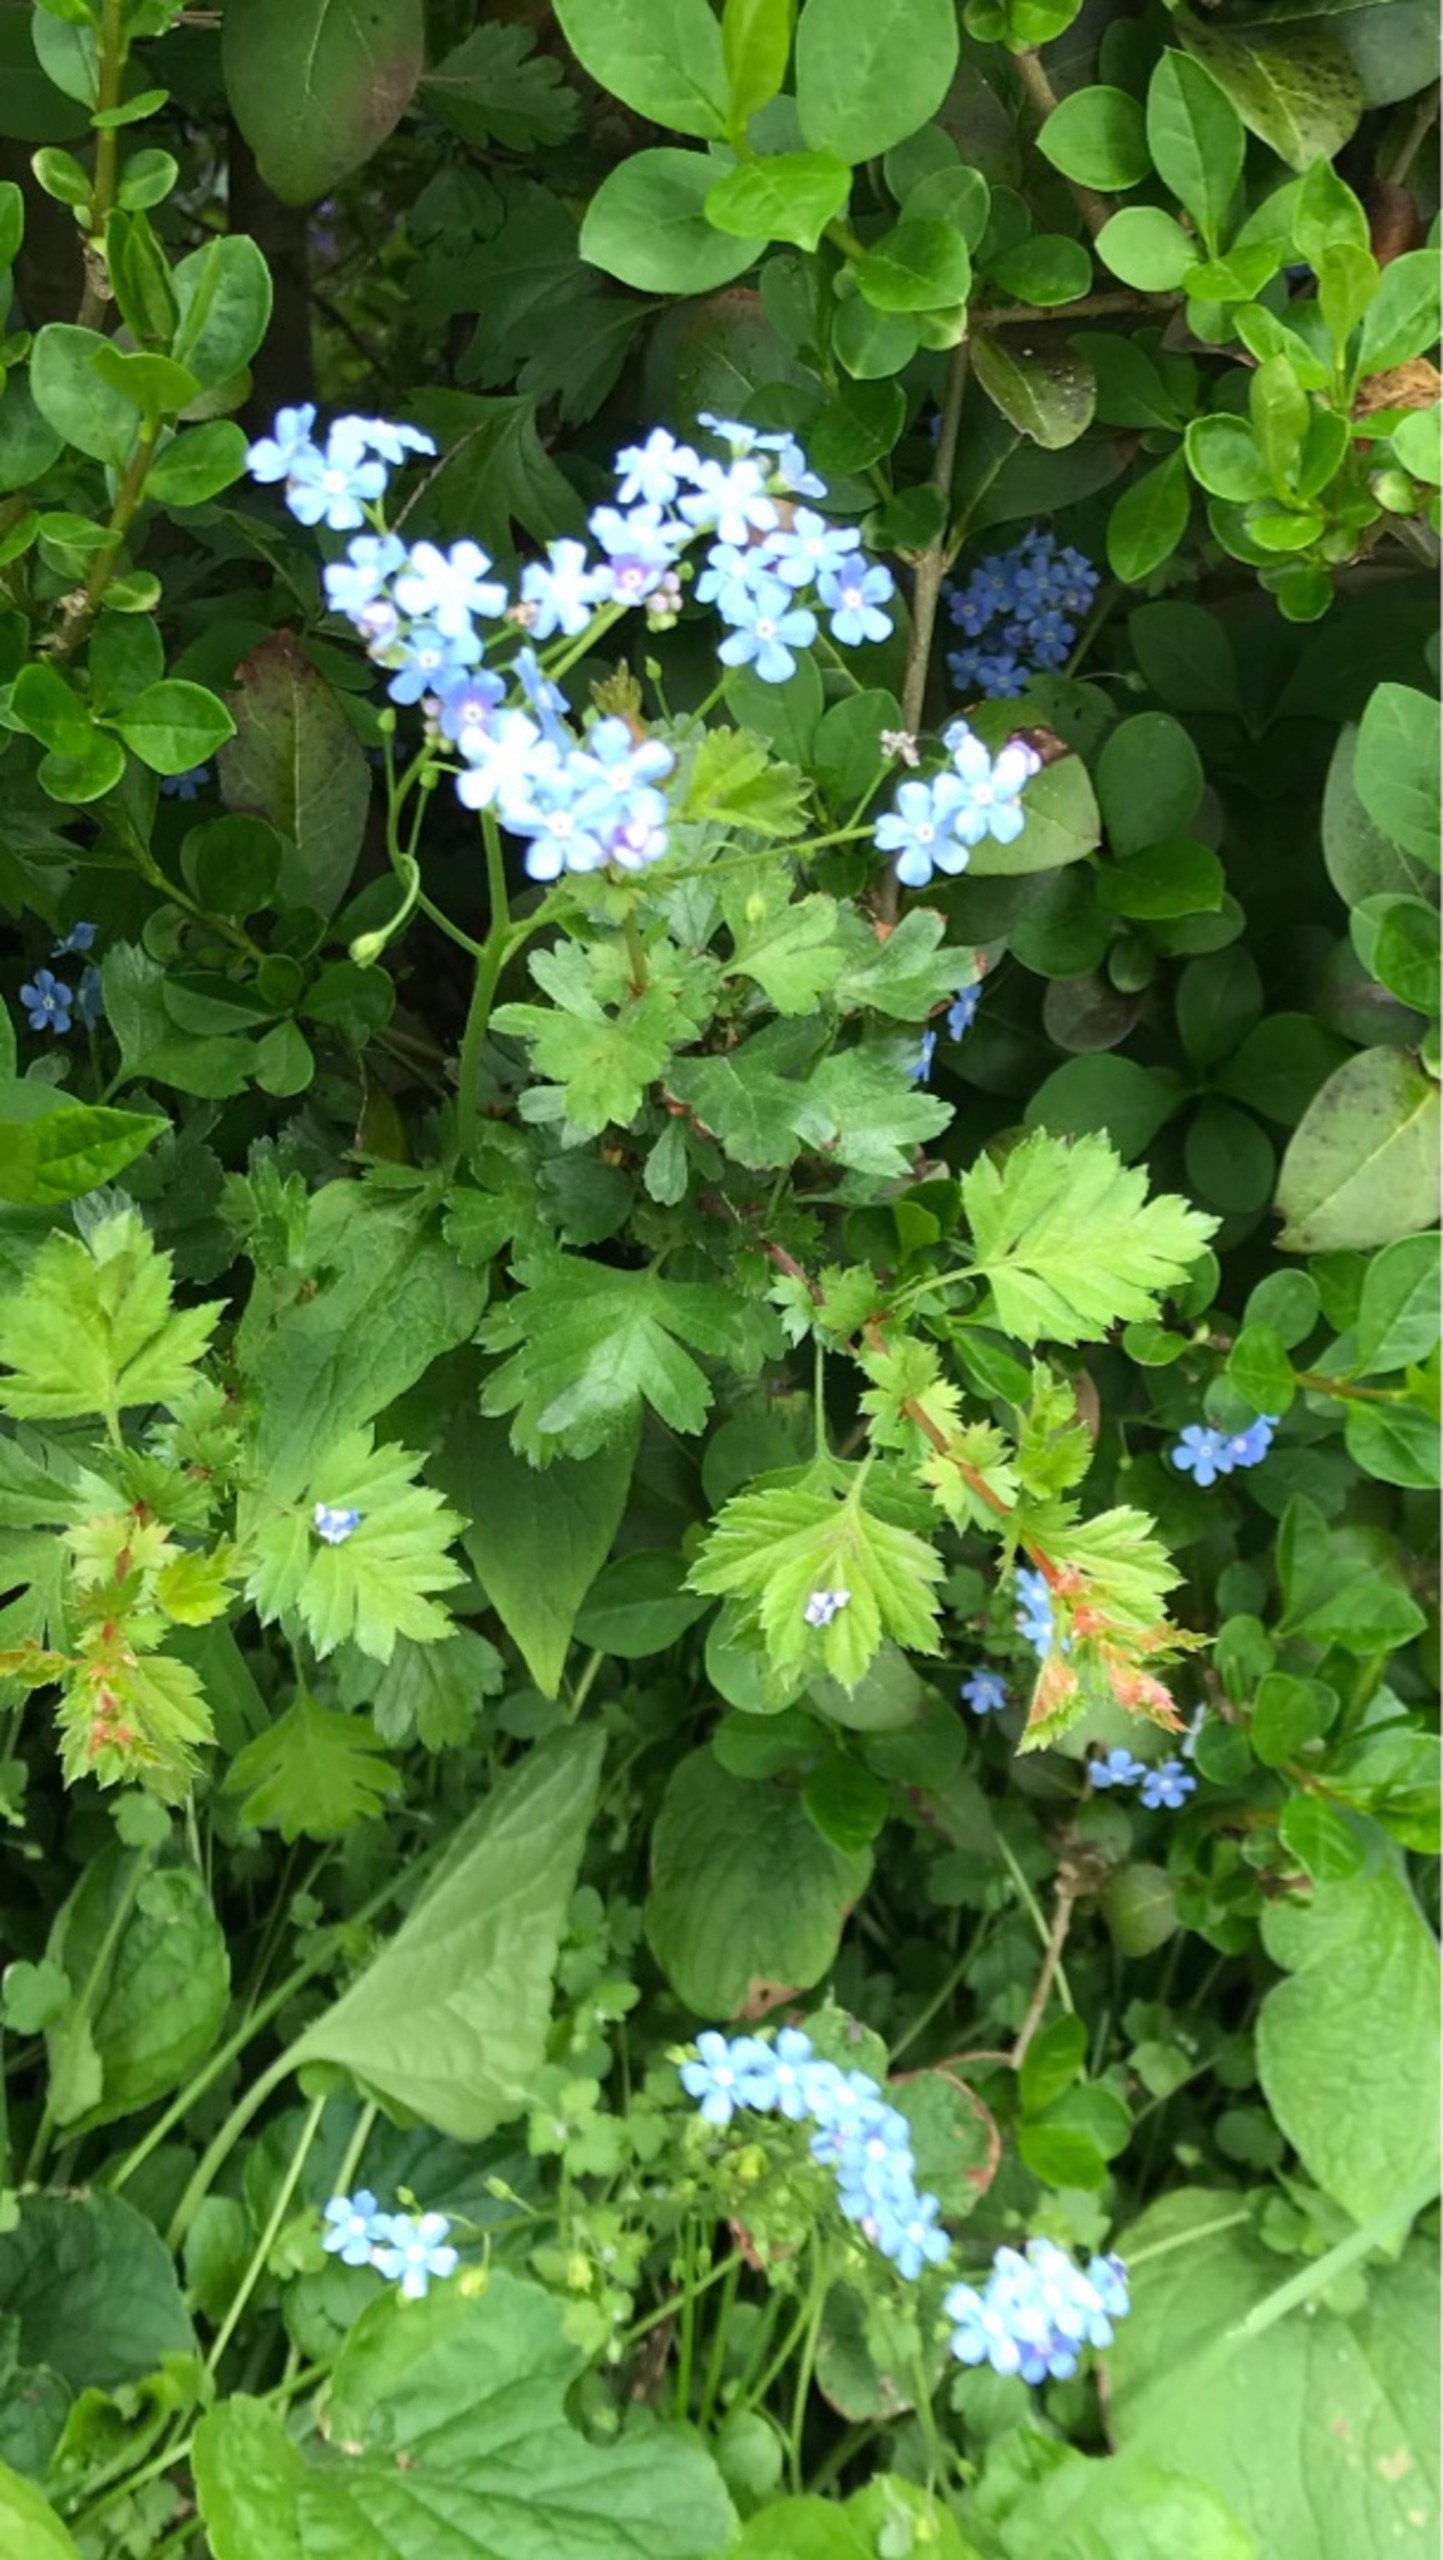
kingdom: Plantae
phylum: Tracheophyta
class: Magnoliopsida
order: Boraginales
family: Boraginaceae
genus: Brunnera
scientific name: Brunnera macrophylla
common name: Kærmindesøster
